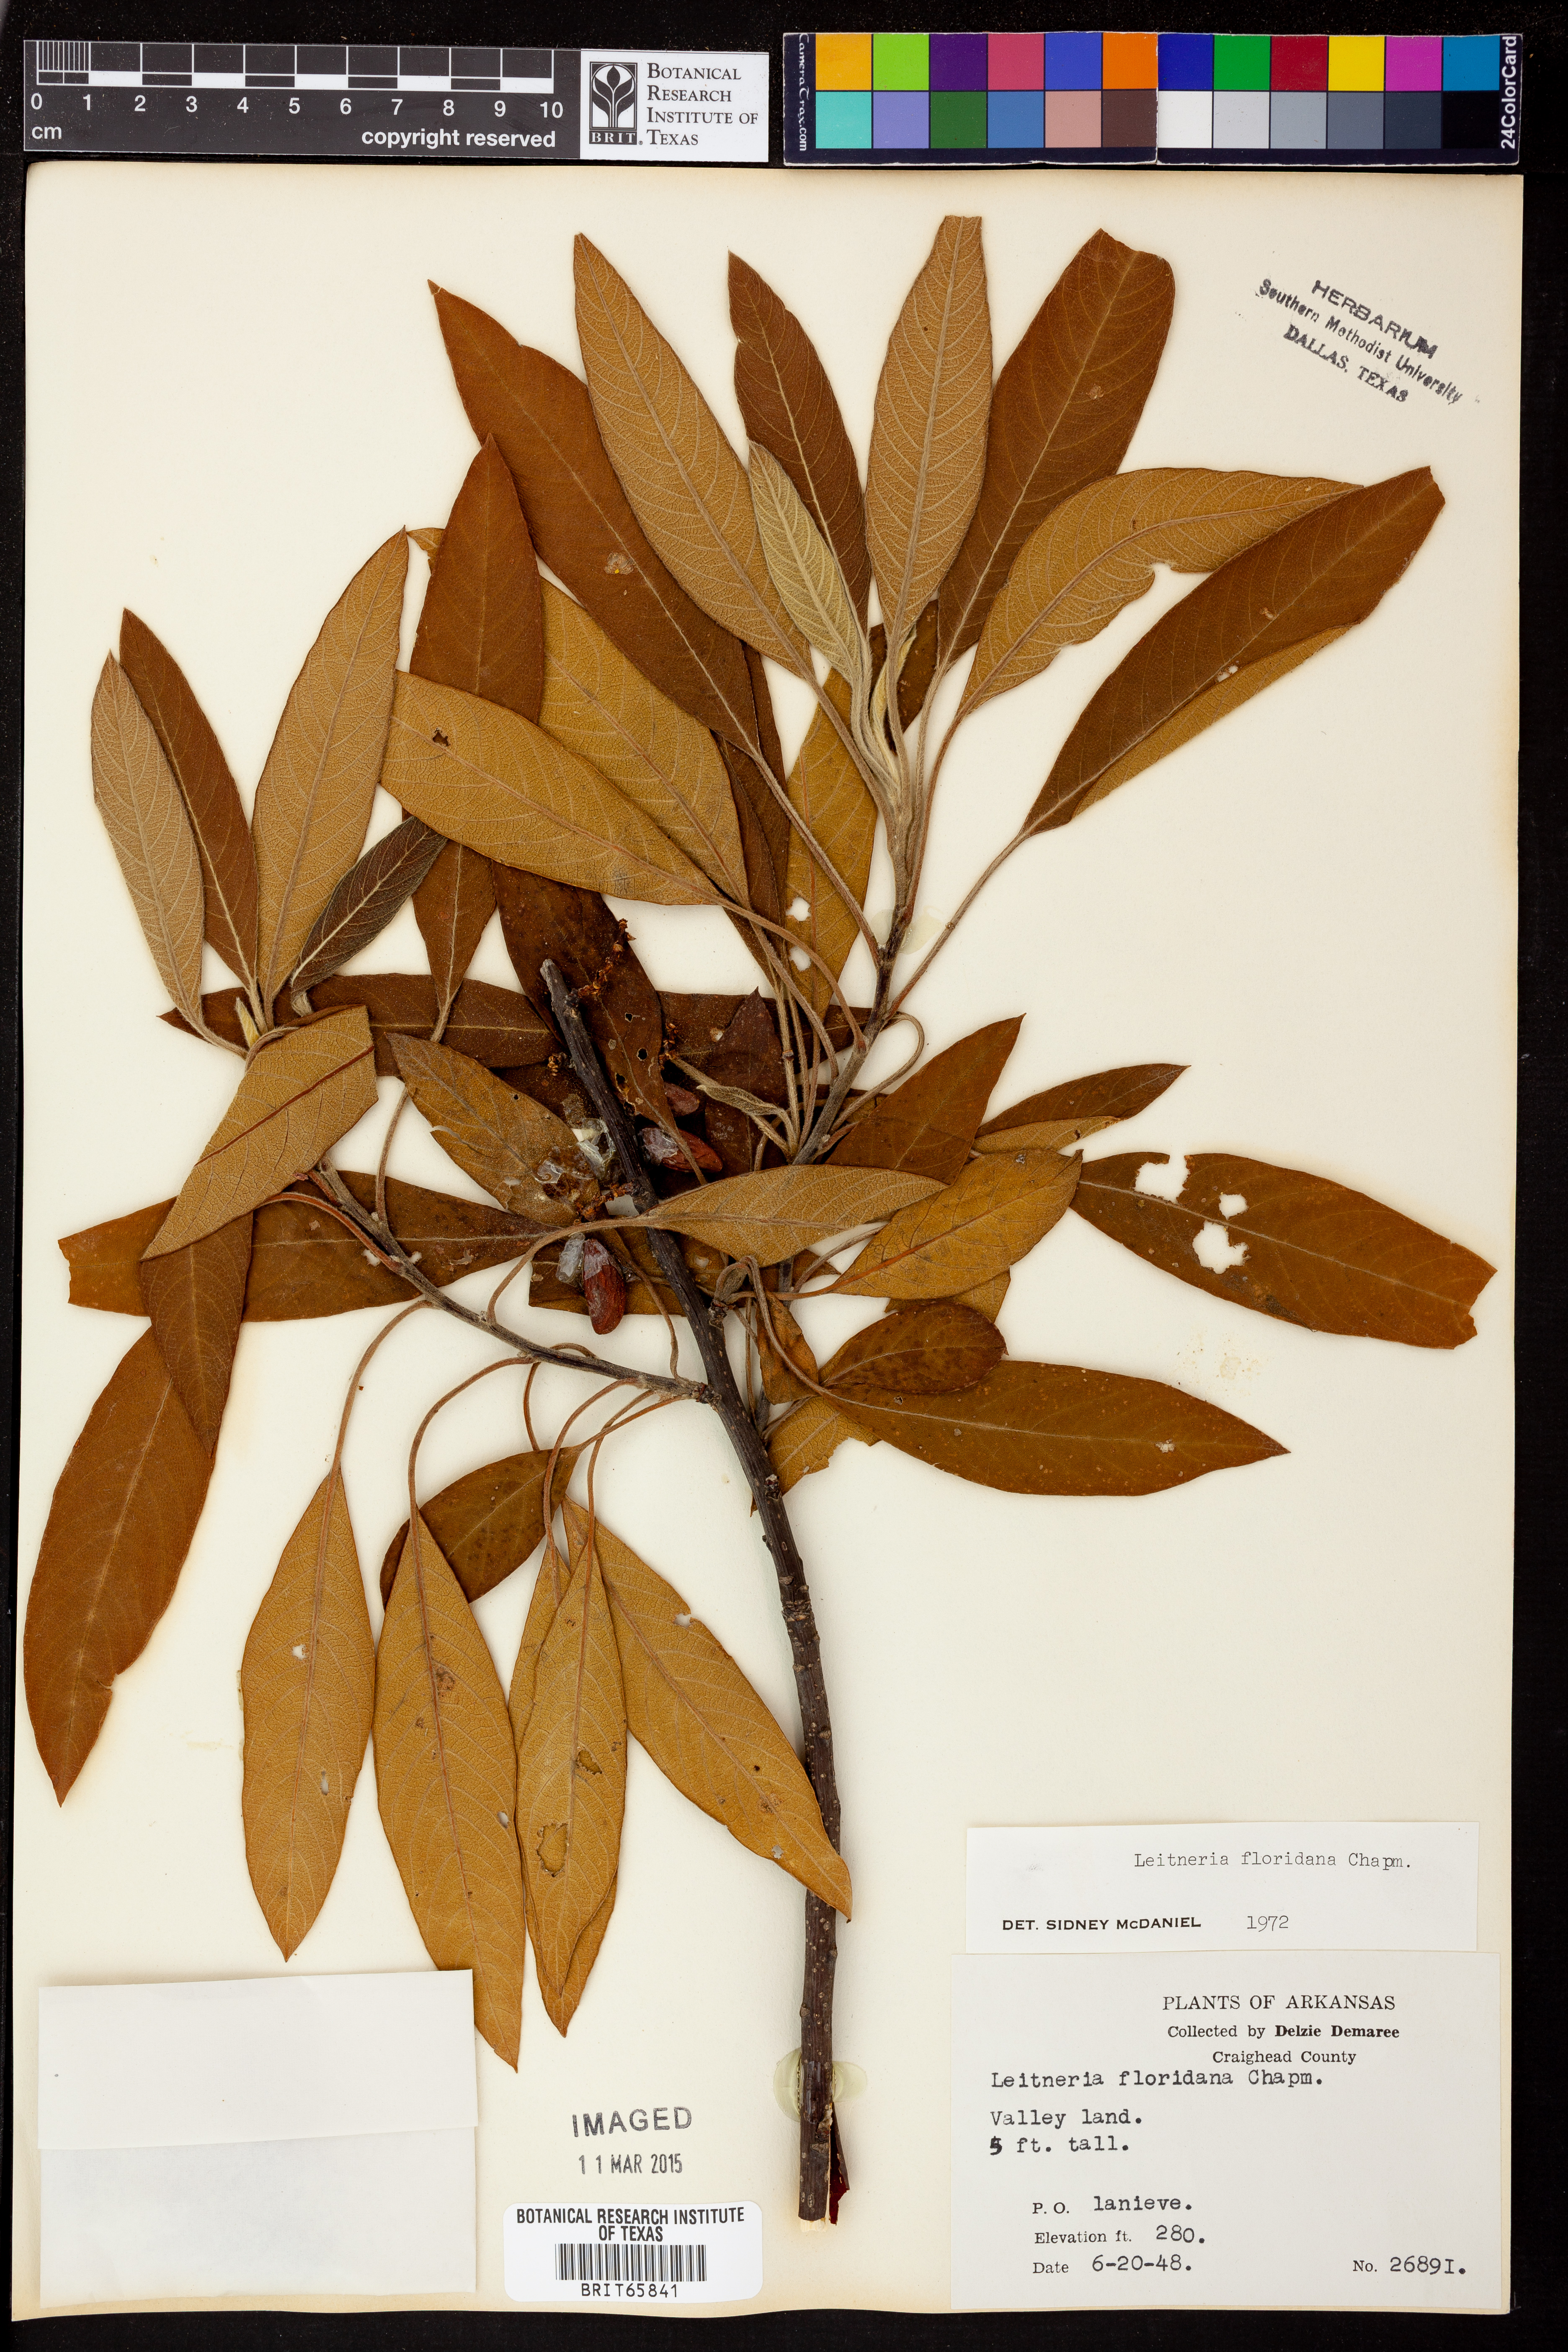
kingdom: Plantae
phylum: Tracheophyta
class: Magnoliopsida
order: Sapindales
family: Simaroubaceae
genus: Leitneria
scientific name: Leitneria floridana
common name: Corkwood
